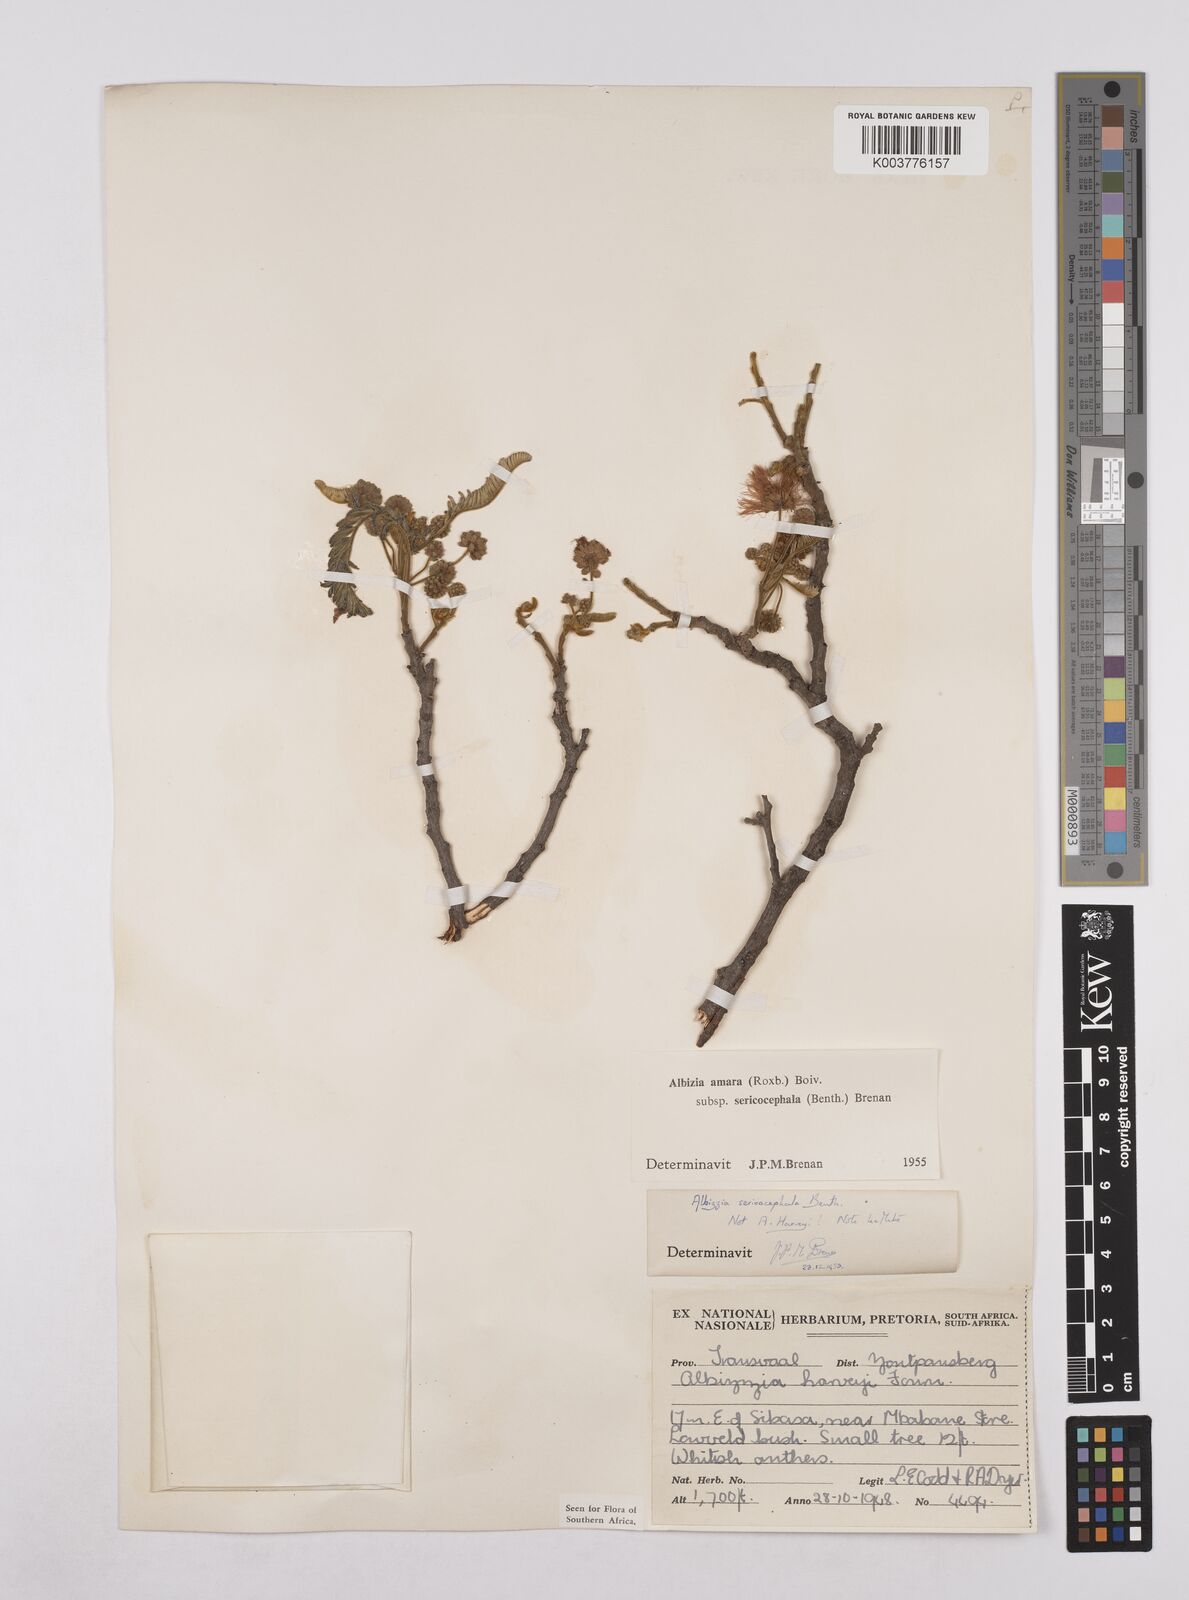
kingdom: Plantae
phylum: Tracheophyta
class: Magnoliopsida
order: Fabales
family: Fabaceae
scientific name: Fabaceae
